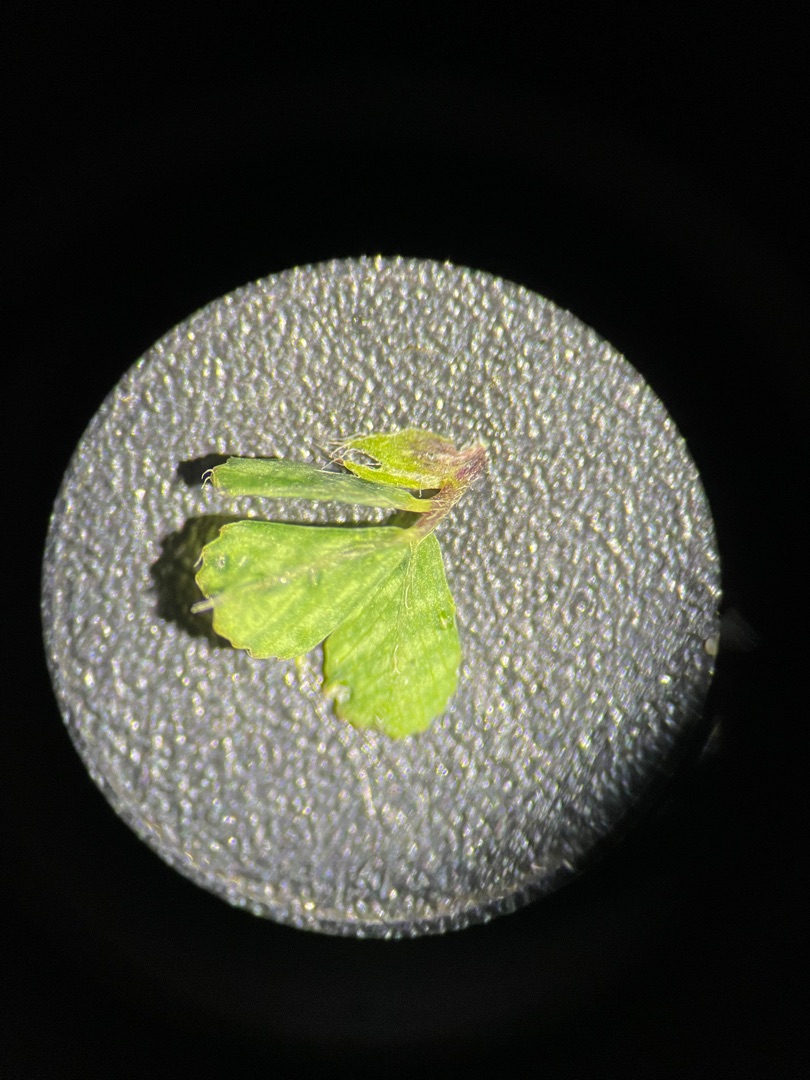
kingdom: Plantae
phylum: Tracheophyta
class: Magnoliopsida
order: Fabales
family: Fabaceae
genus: Medicago
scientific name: Medicago lupulina
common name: Humle-sneglebælg
